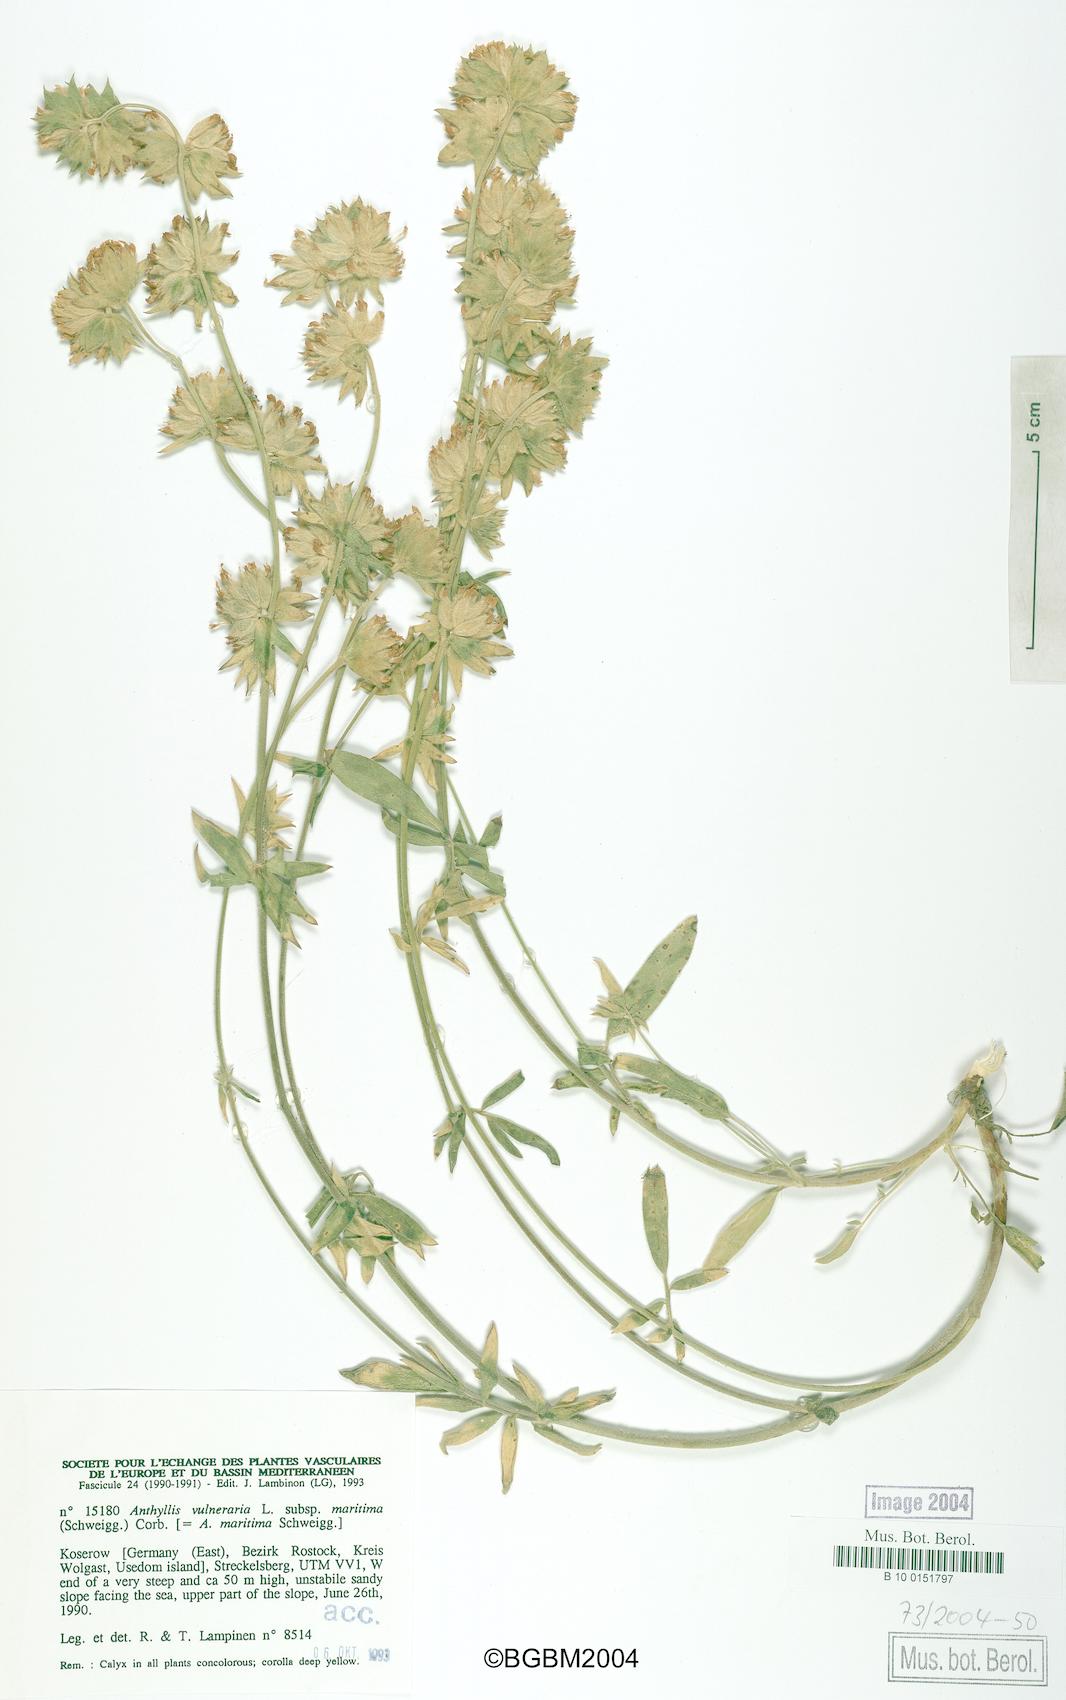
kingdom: Plantae
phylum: Tracheophyta
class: Magnoliopsida
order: Fabales
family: Fabaceae
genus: Anthyllis
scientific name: Anthyllis vulneraria
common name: Kidney vetch
